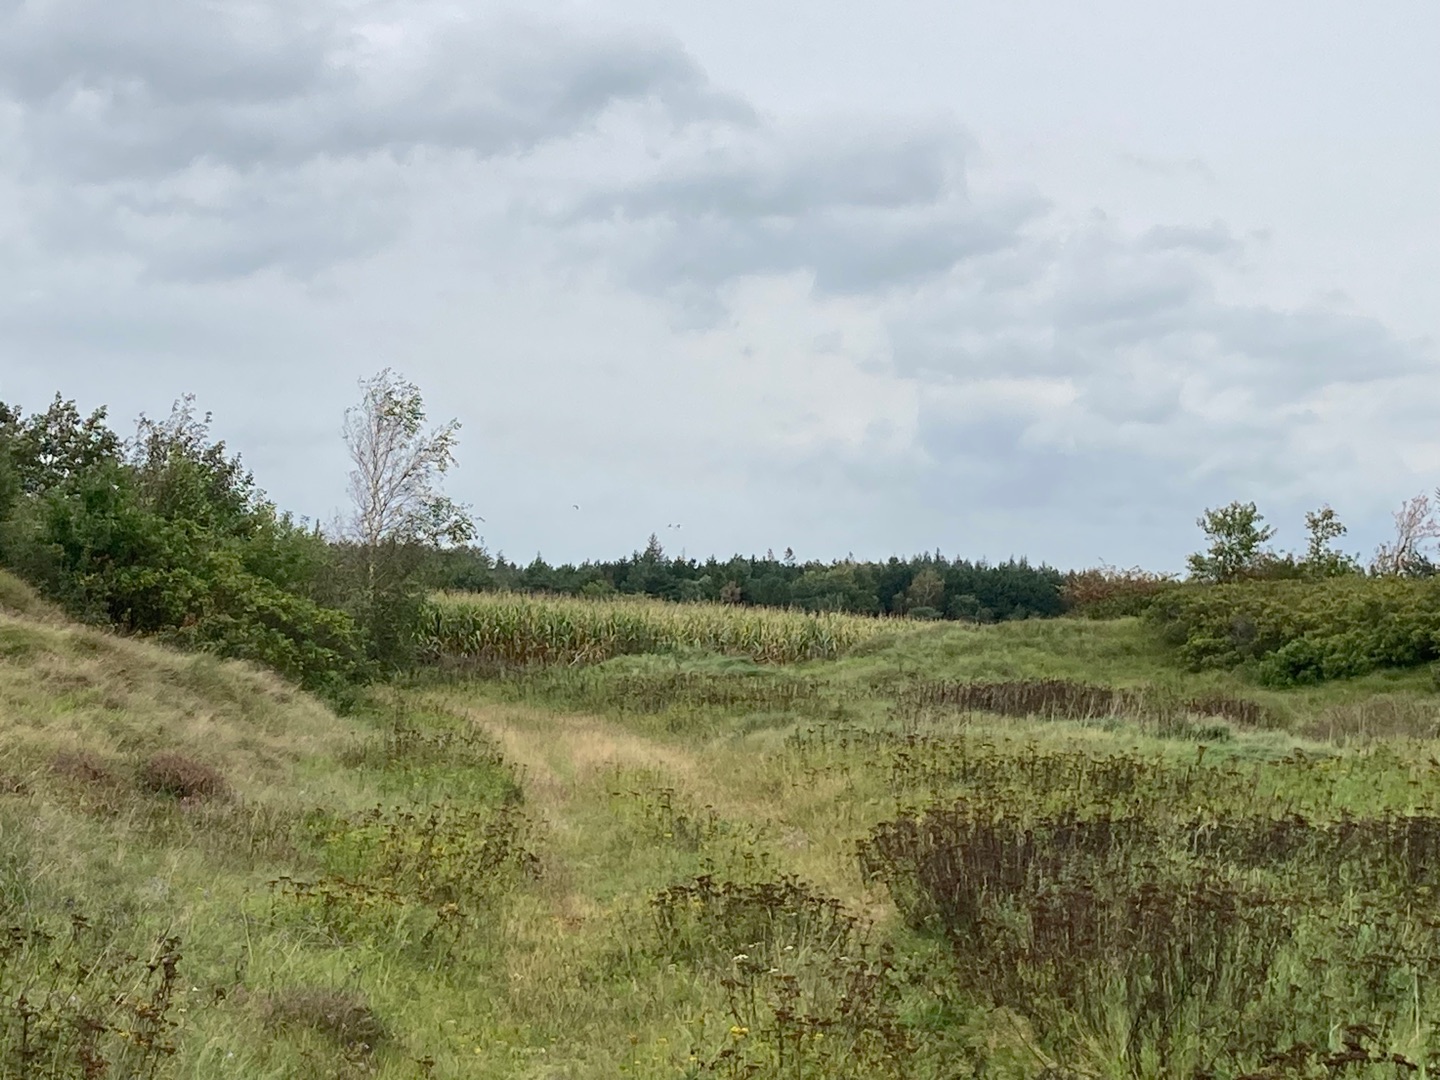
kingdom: Animalia
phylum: Chordata
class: Aves
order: Gruiformes
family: Gruidae
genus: Grus
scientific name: Grus grus
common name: Trane
